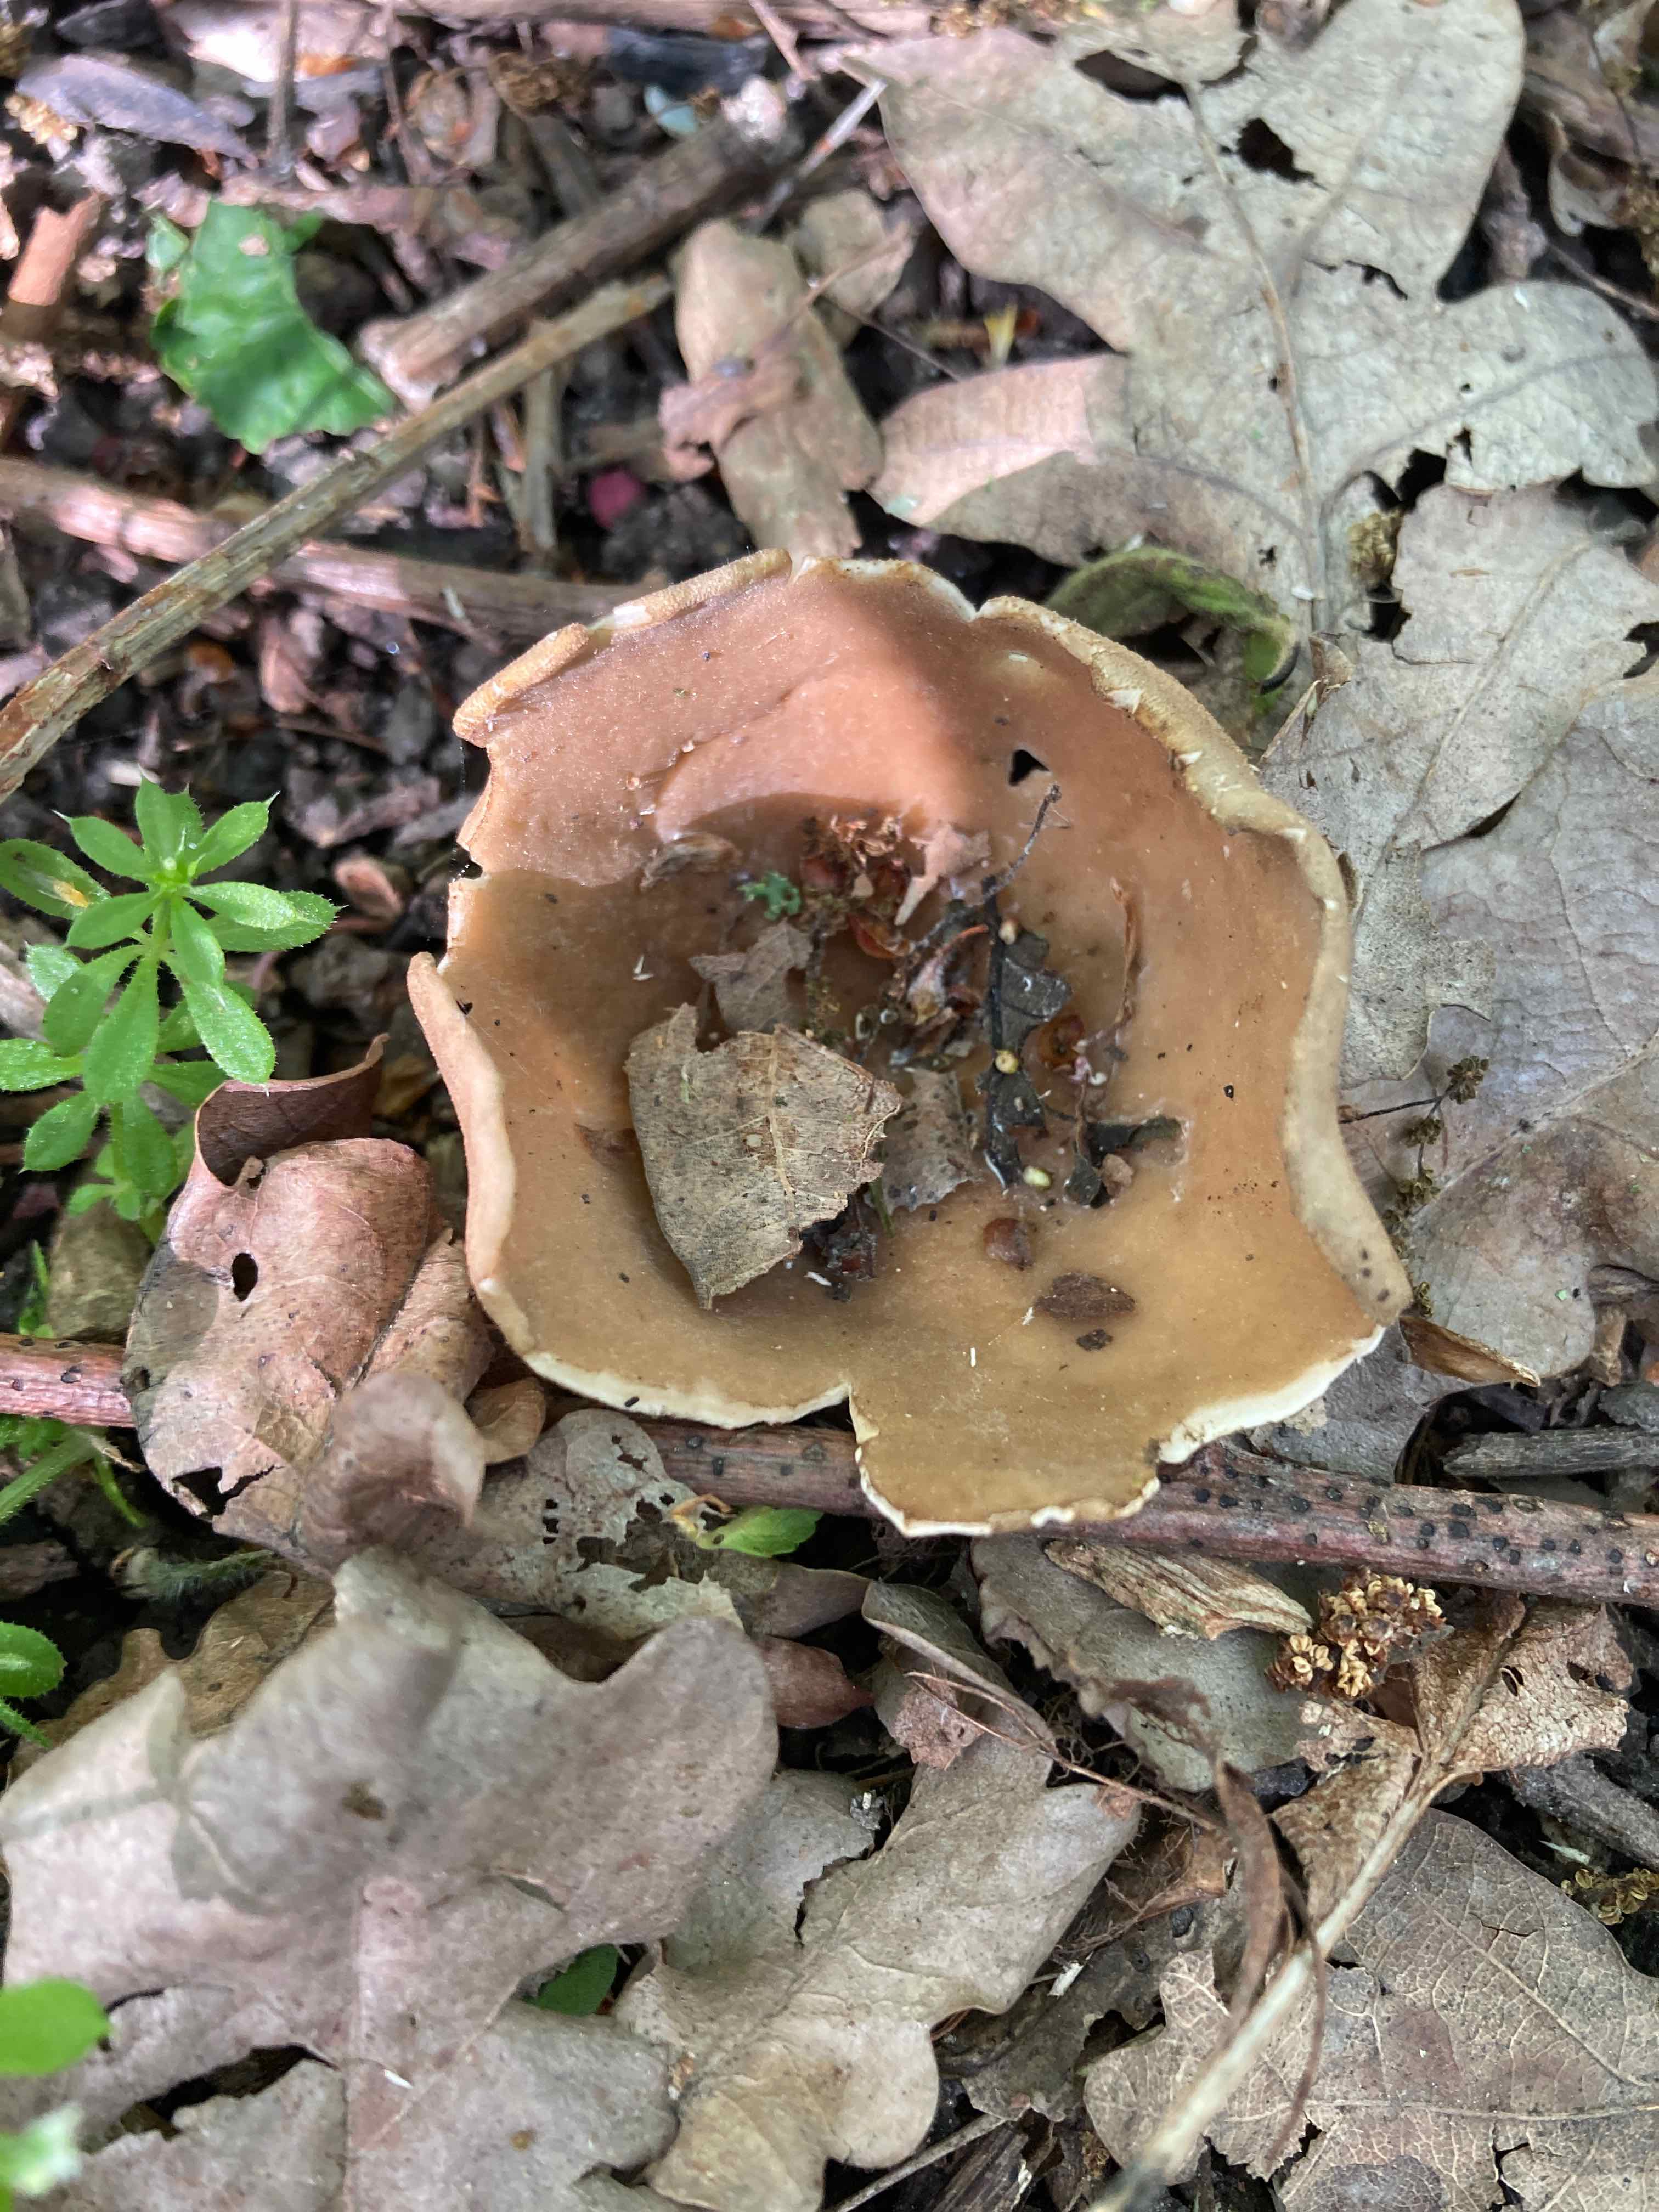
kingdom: Fungi
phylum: Ascomycota
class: Pezizomycetes
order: Pezizales
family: Helvellaceae
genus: Helvella
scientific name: Helvella acetabulum
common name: pokal-foldhat
